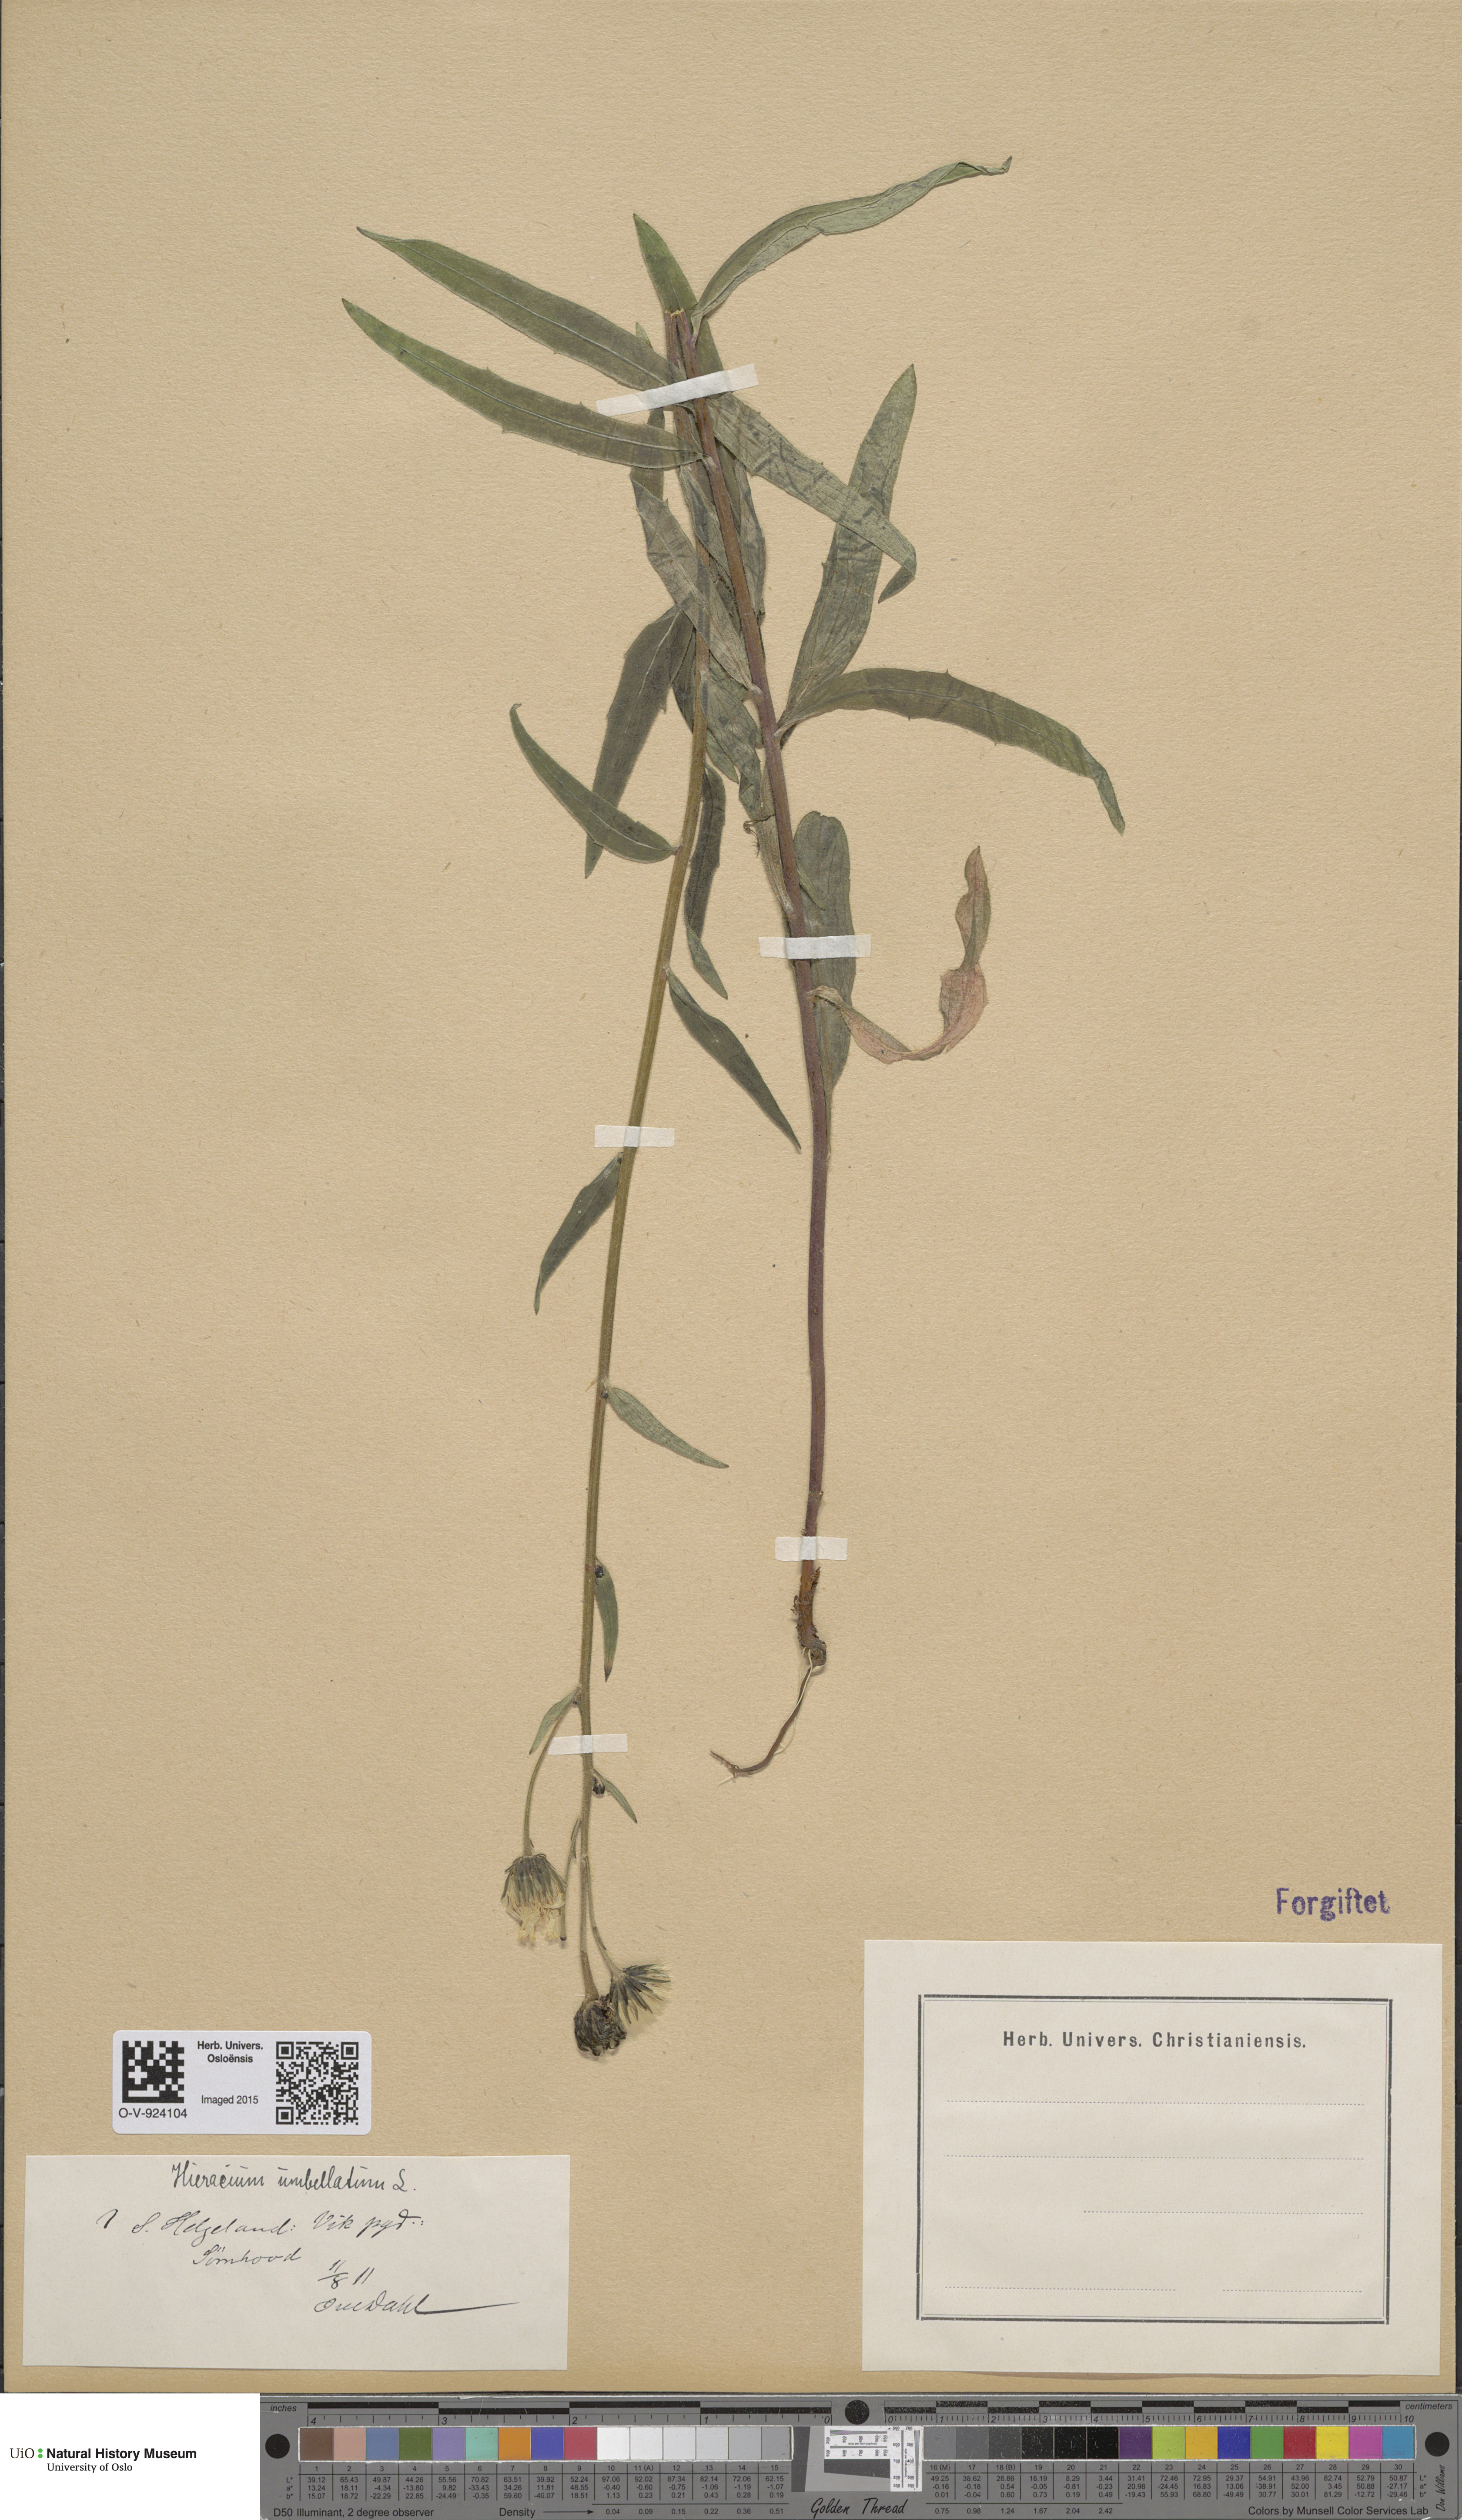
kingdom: Plantae
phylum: Tracheophyta
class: Magnoliopsida
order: Asterales
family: Asteraceae
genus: Hieracium
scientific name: Hieracium umbellatum
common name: Northern hawkweed
